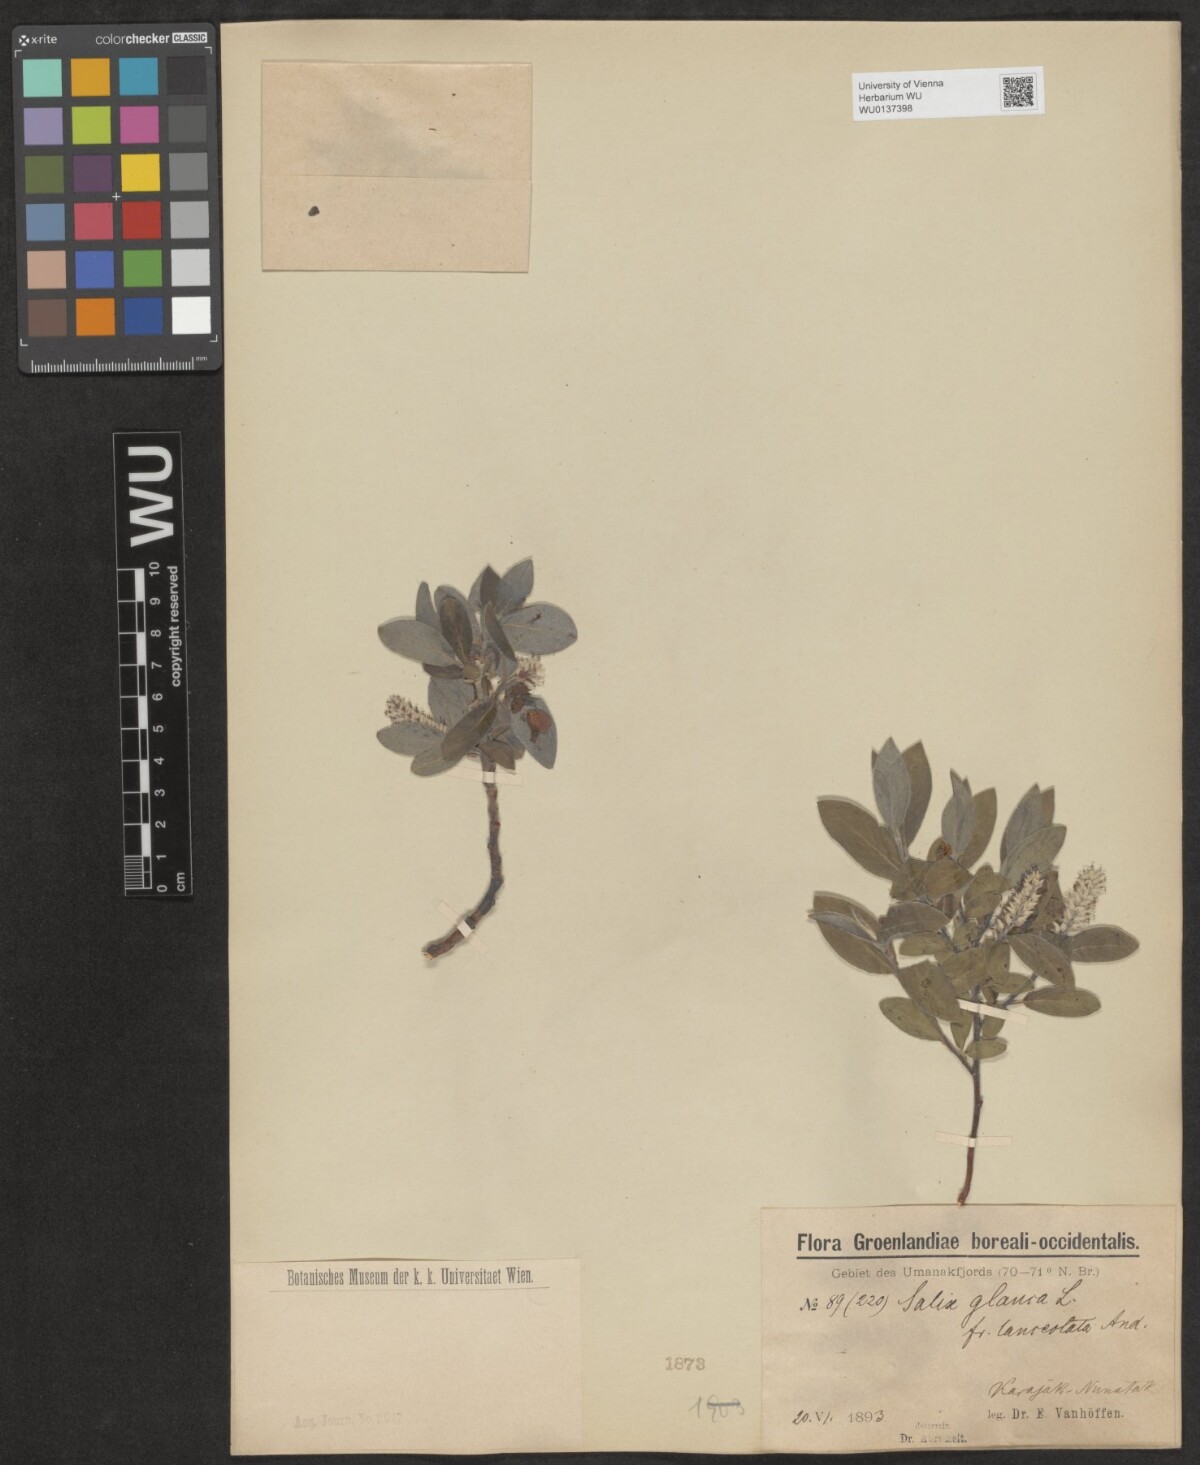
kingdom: Plantae
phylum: Tracheophyta
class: Magnoliopsida
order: Malpighiales
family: Salicaceae
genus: Salix
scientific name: Salix glauca
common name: Glaucous willow
